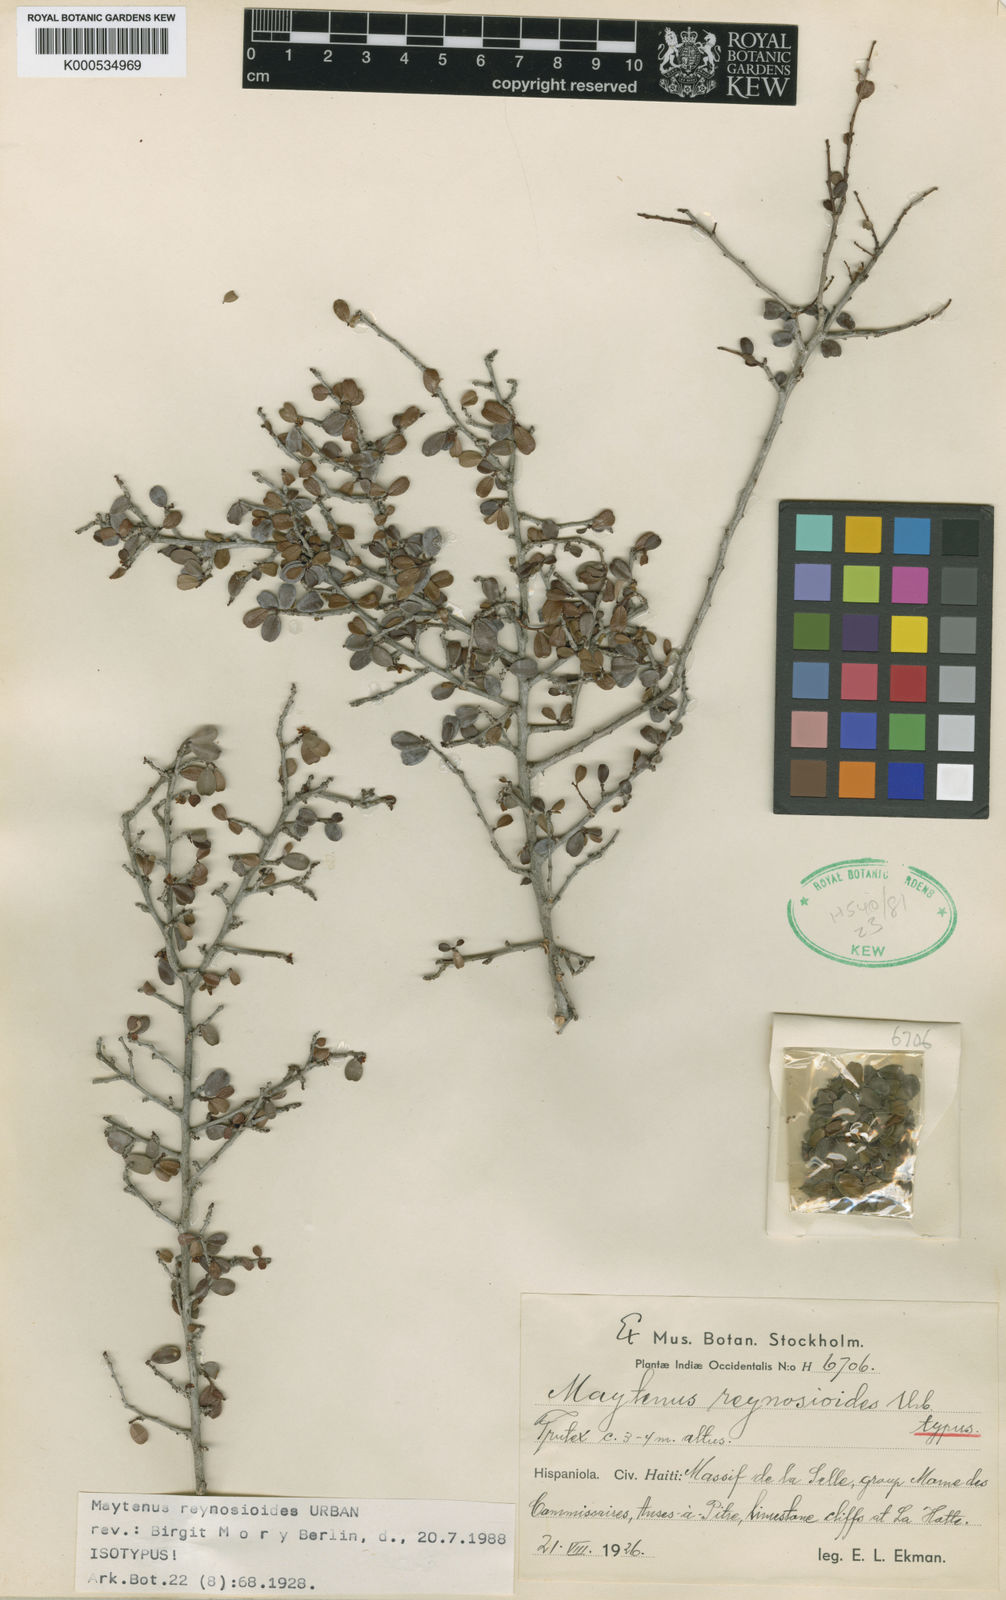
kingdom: Plantae
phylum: Tracheophyta
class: Magnoliopsida
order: Celastrales
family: Celastraceae
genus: Maytenus
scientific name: Maytenus reynosioides
